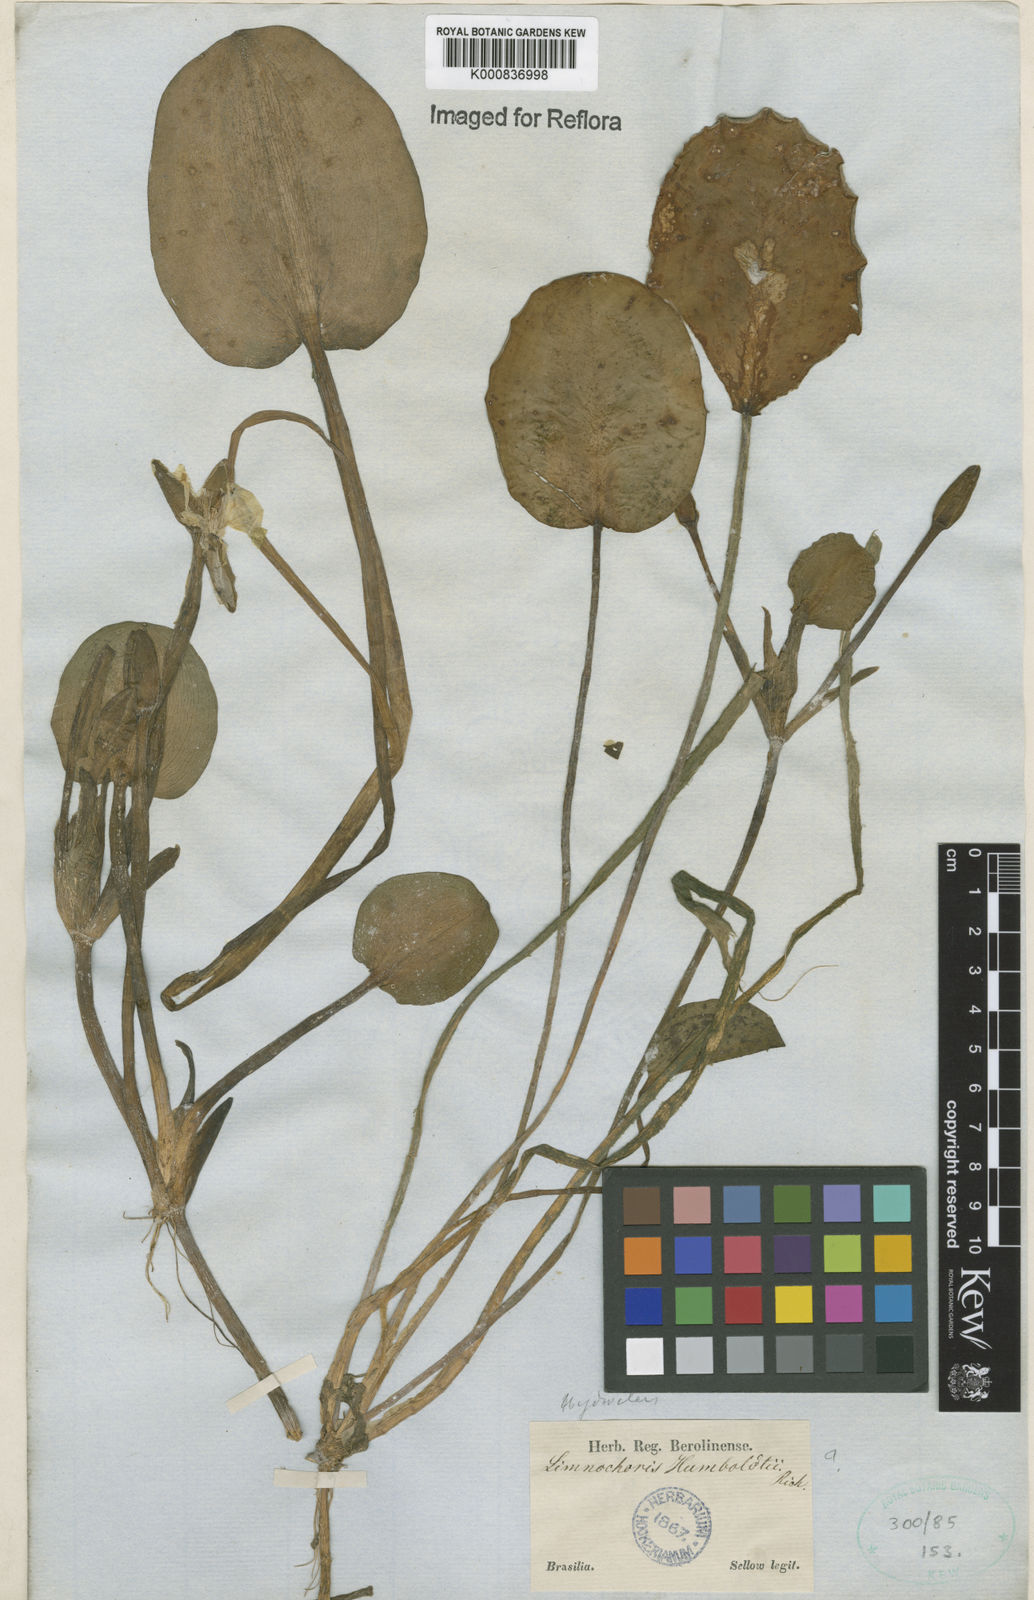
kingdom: Plantae
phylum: Tracheophyta
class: Liliopsida
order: Alismatales
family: Alismataceae
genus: Hydrocleys
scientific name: Hydrocleys nymphoides
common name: Water-poppy
